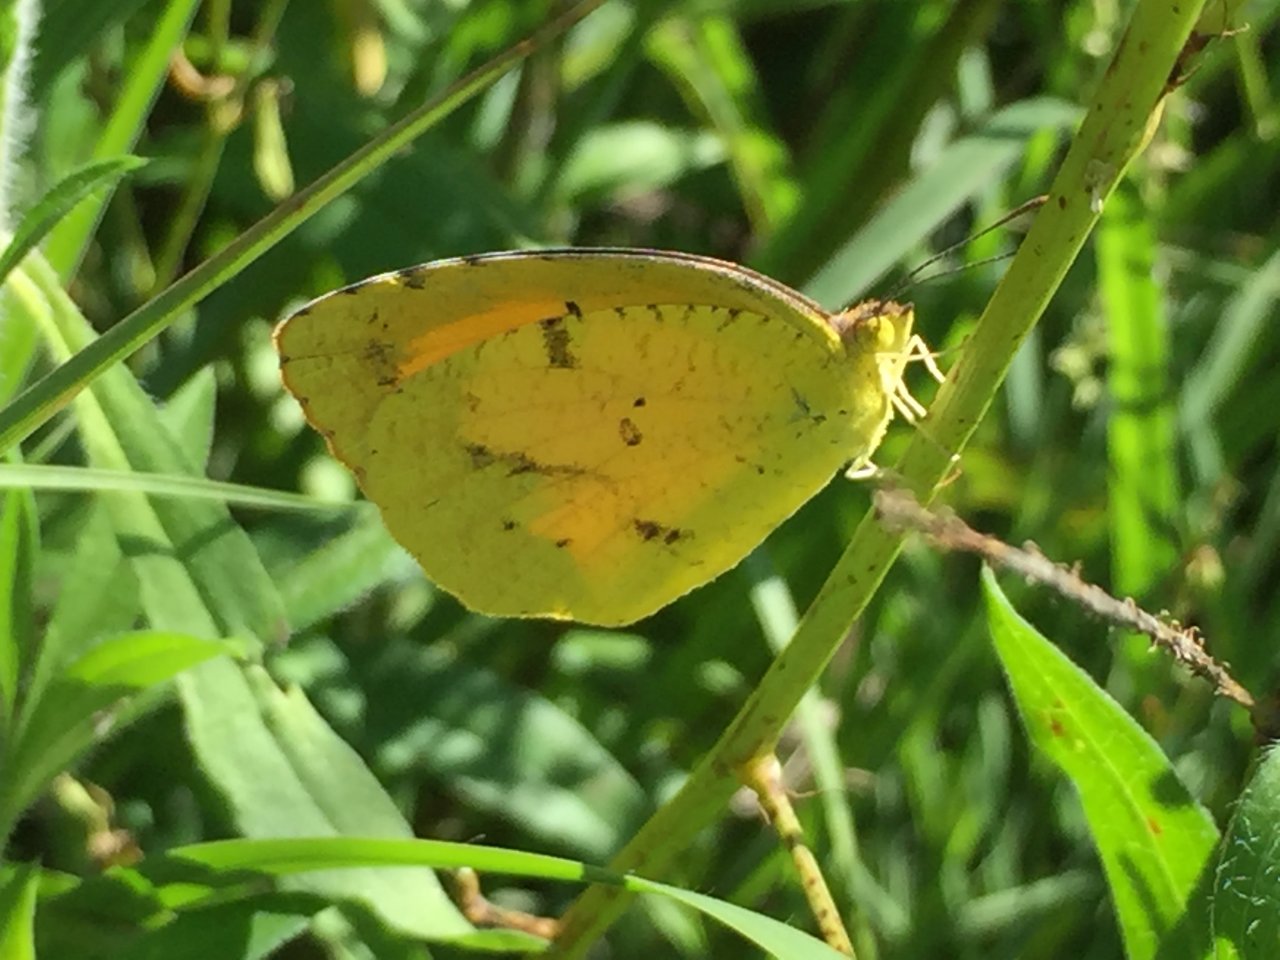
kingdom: Animalia
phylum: Arthropoda
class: Insecta
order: Lepidoptera
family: Pieridae
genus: Abaeis
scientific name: Abaeis nicippe
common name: Sleepy Orange
